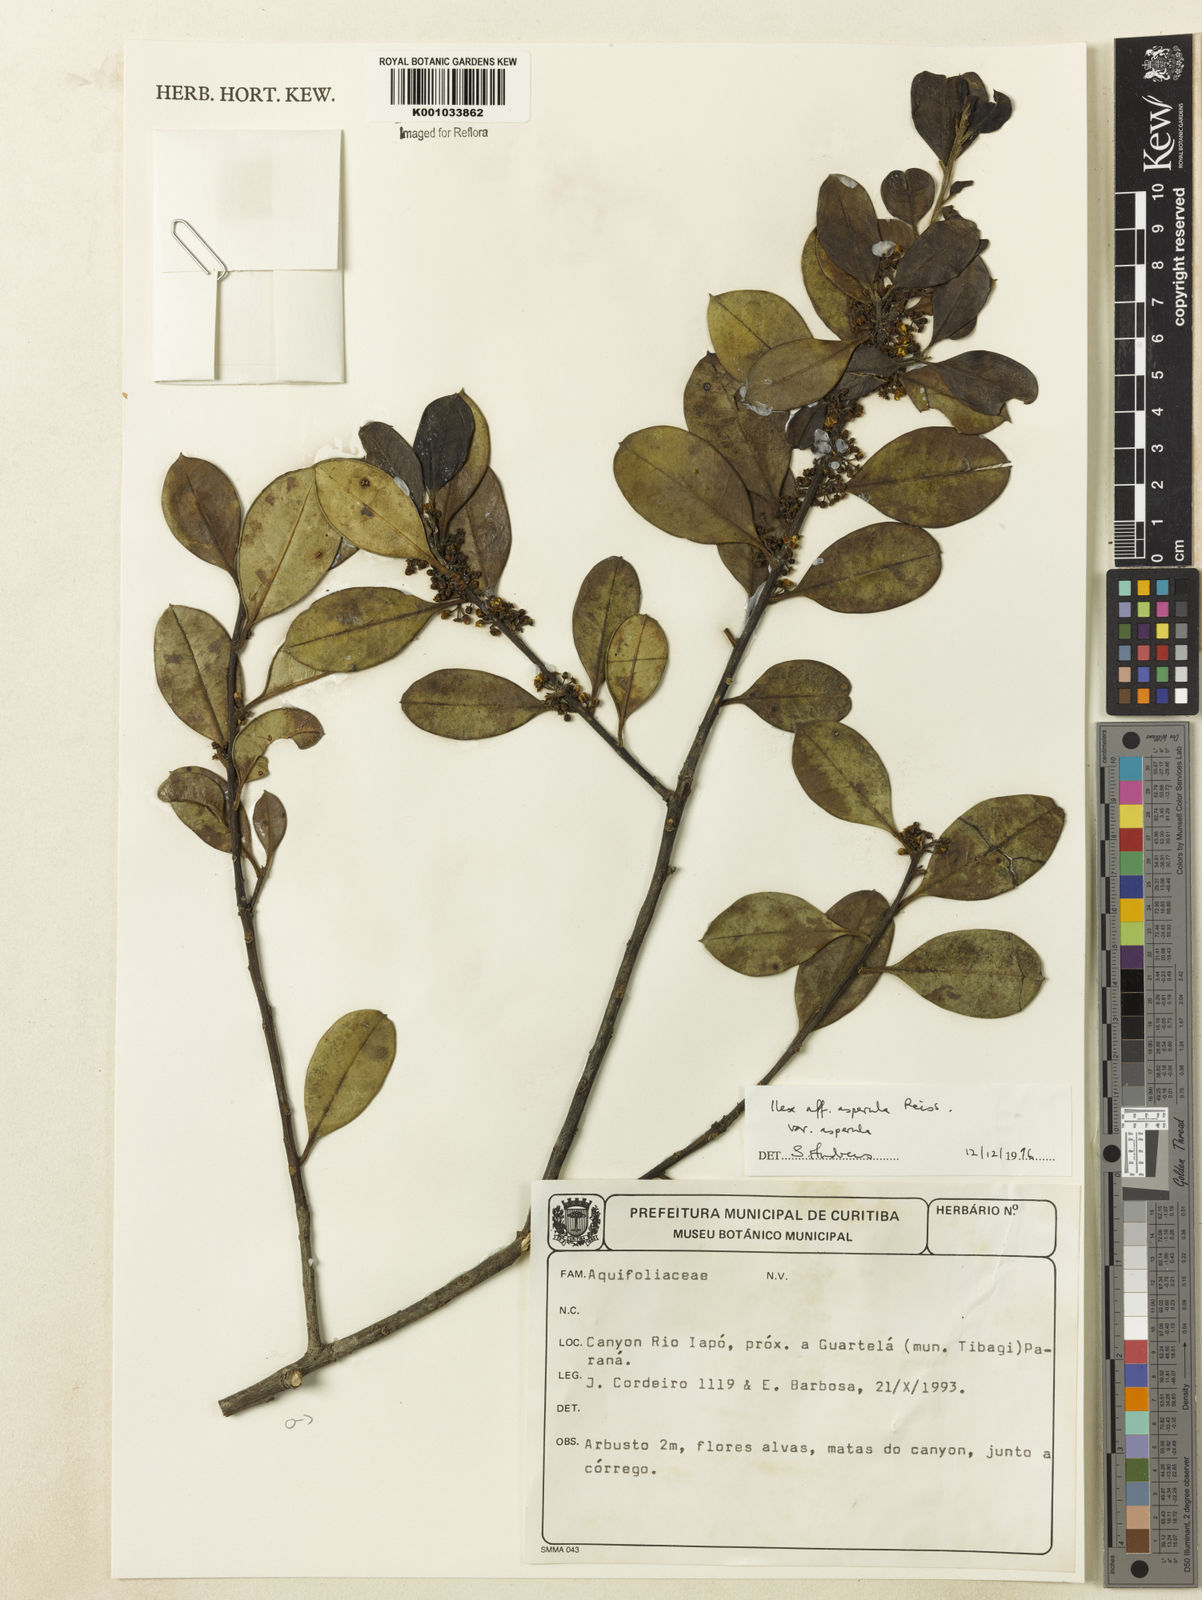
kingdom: Plantae
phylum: Tracheophyta
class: Magnoliopsida
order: Aquifoliales
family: Aquifoliaceae
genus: Ilex
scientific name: Ilex
